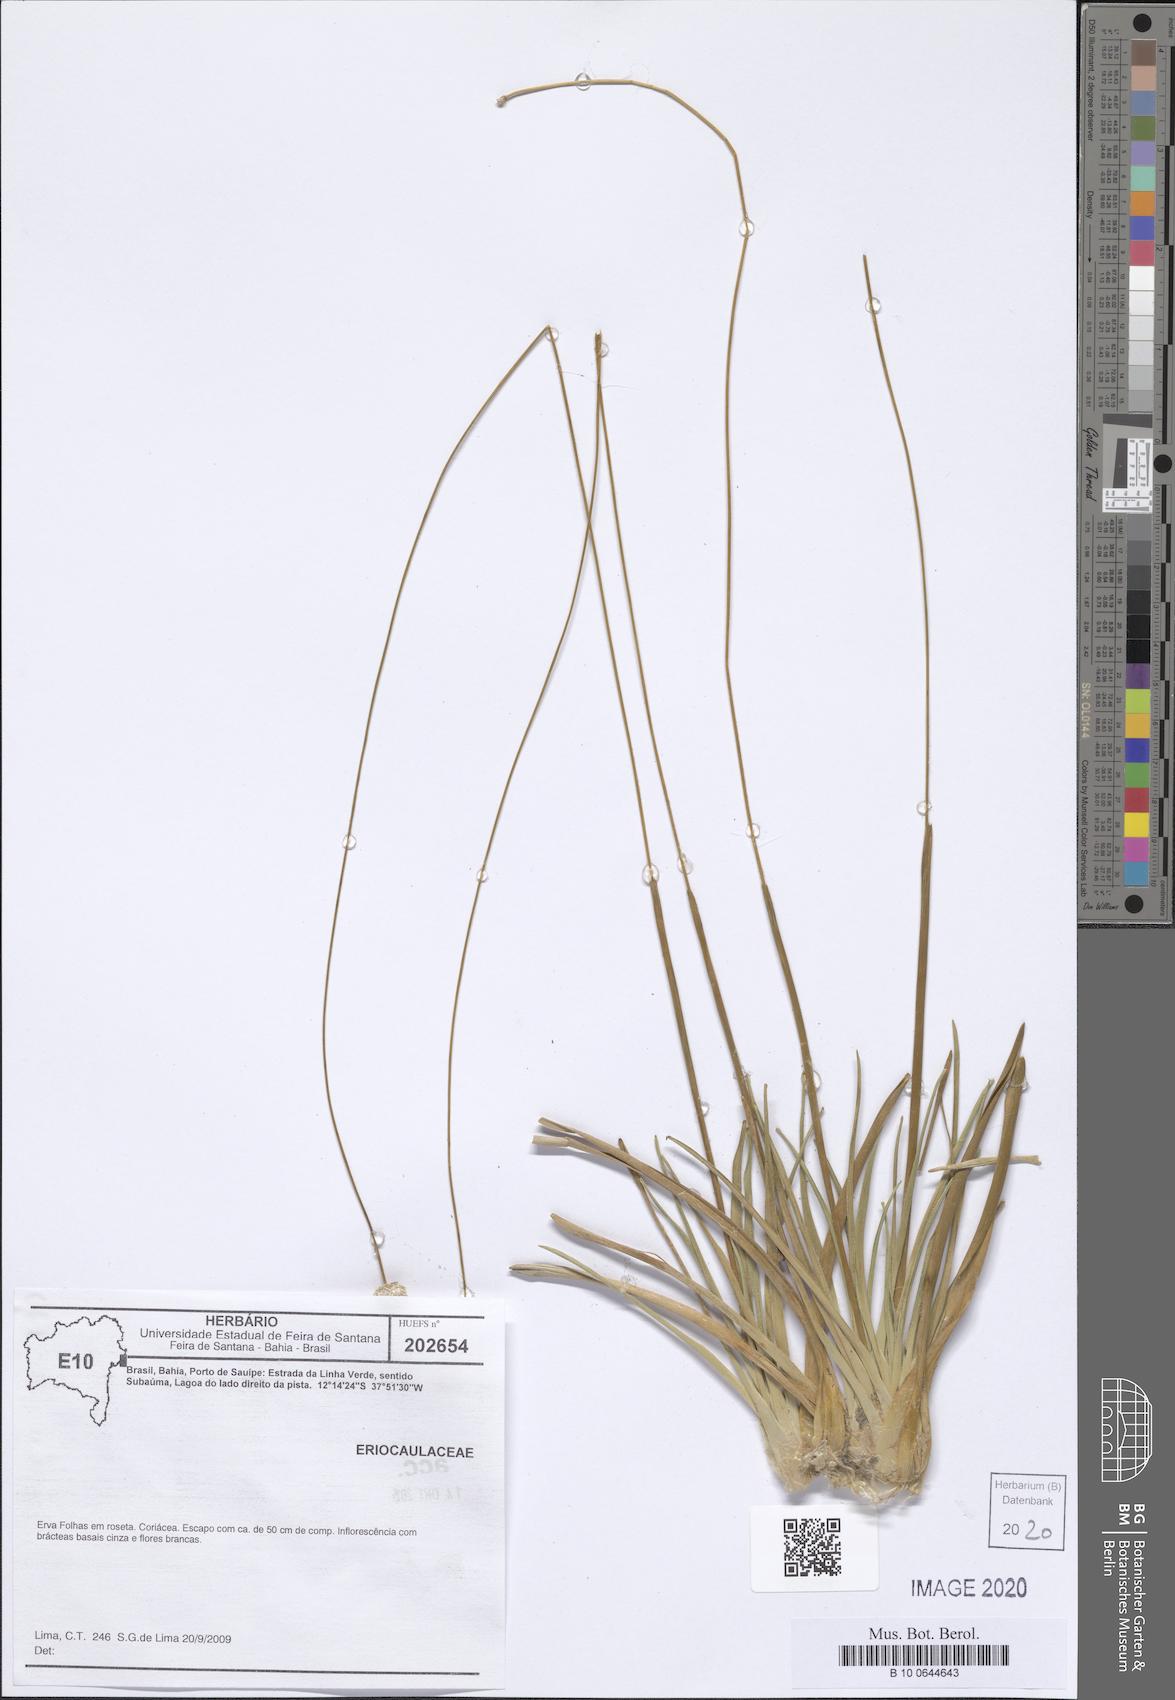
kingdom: Plantae
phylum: Tracheophyta
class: Liliopsida
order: Poales
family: Eriocaulaceae
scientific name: Eriocaulaceae
